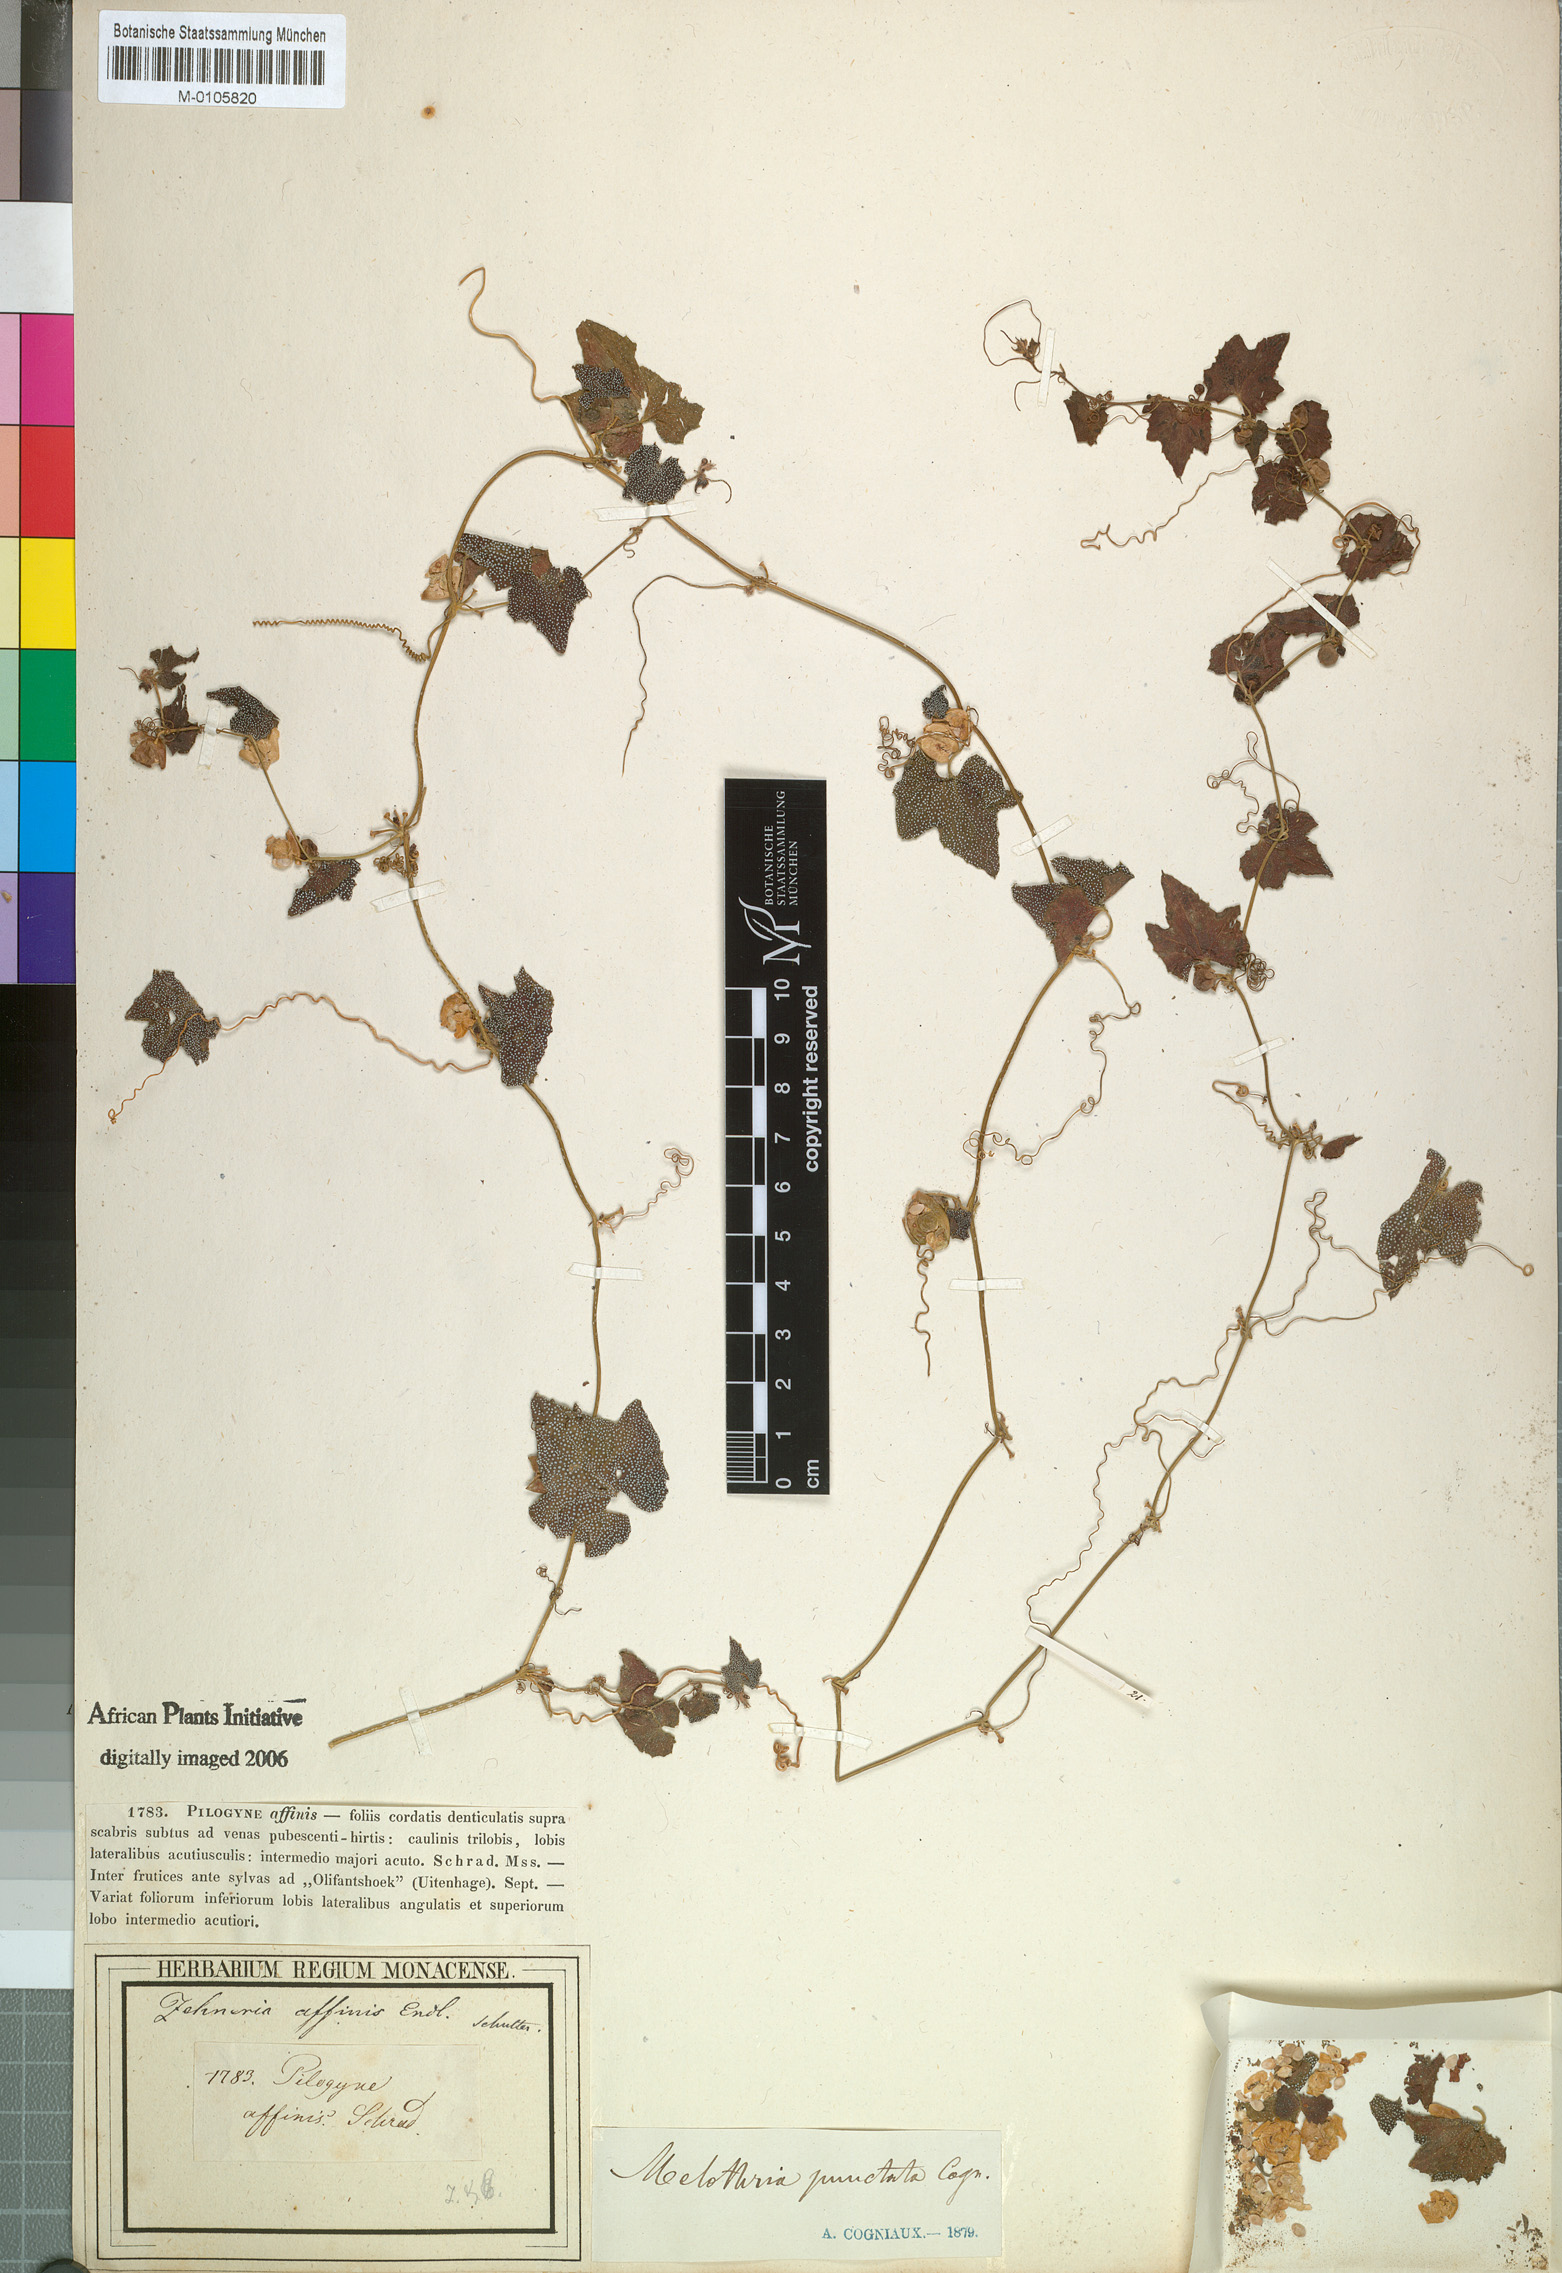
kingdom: Plantae
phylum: Tracheophyta
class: Magnoliopsida
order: Cucurbitales
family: Cucurbitaceae
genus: Zehneria
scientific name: Zehneria scabra
